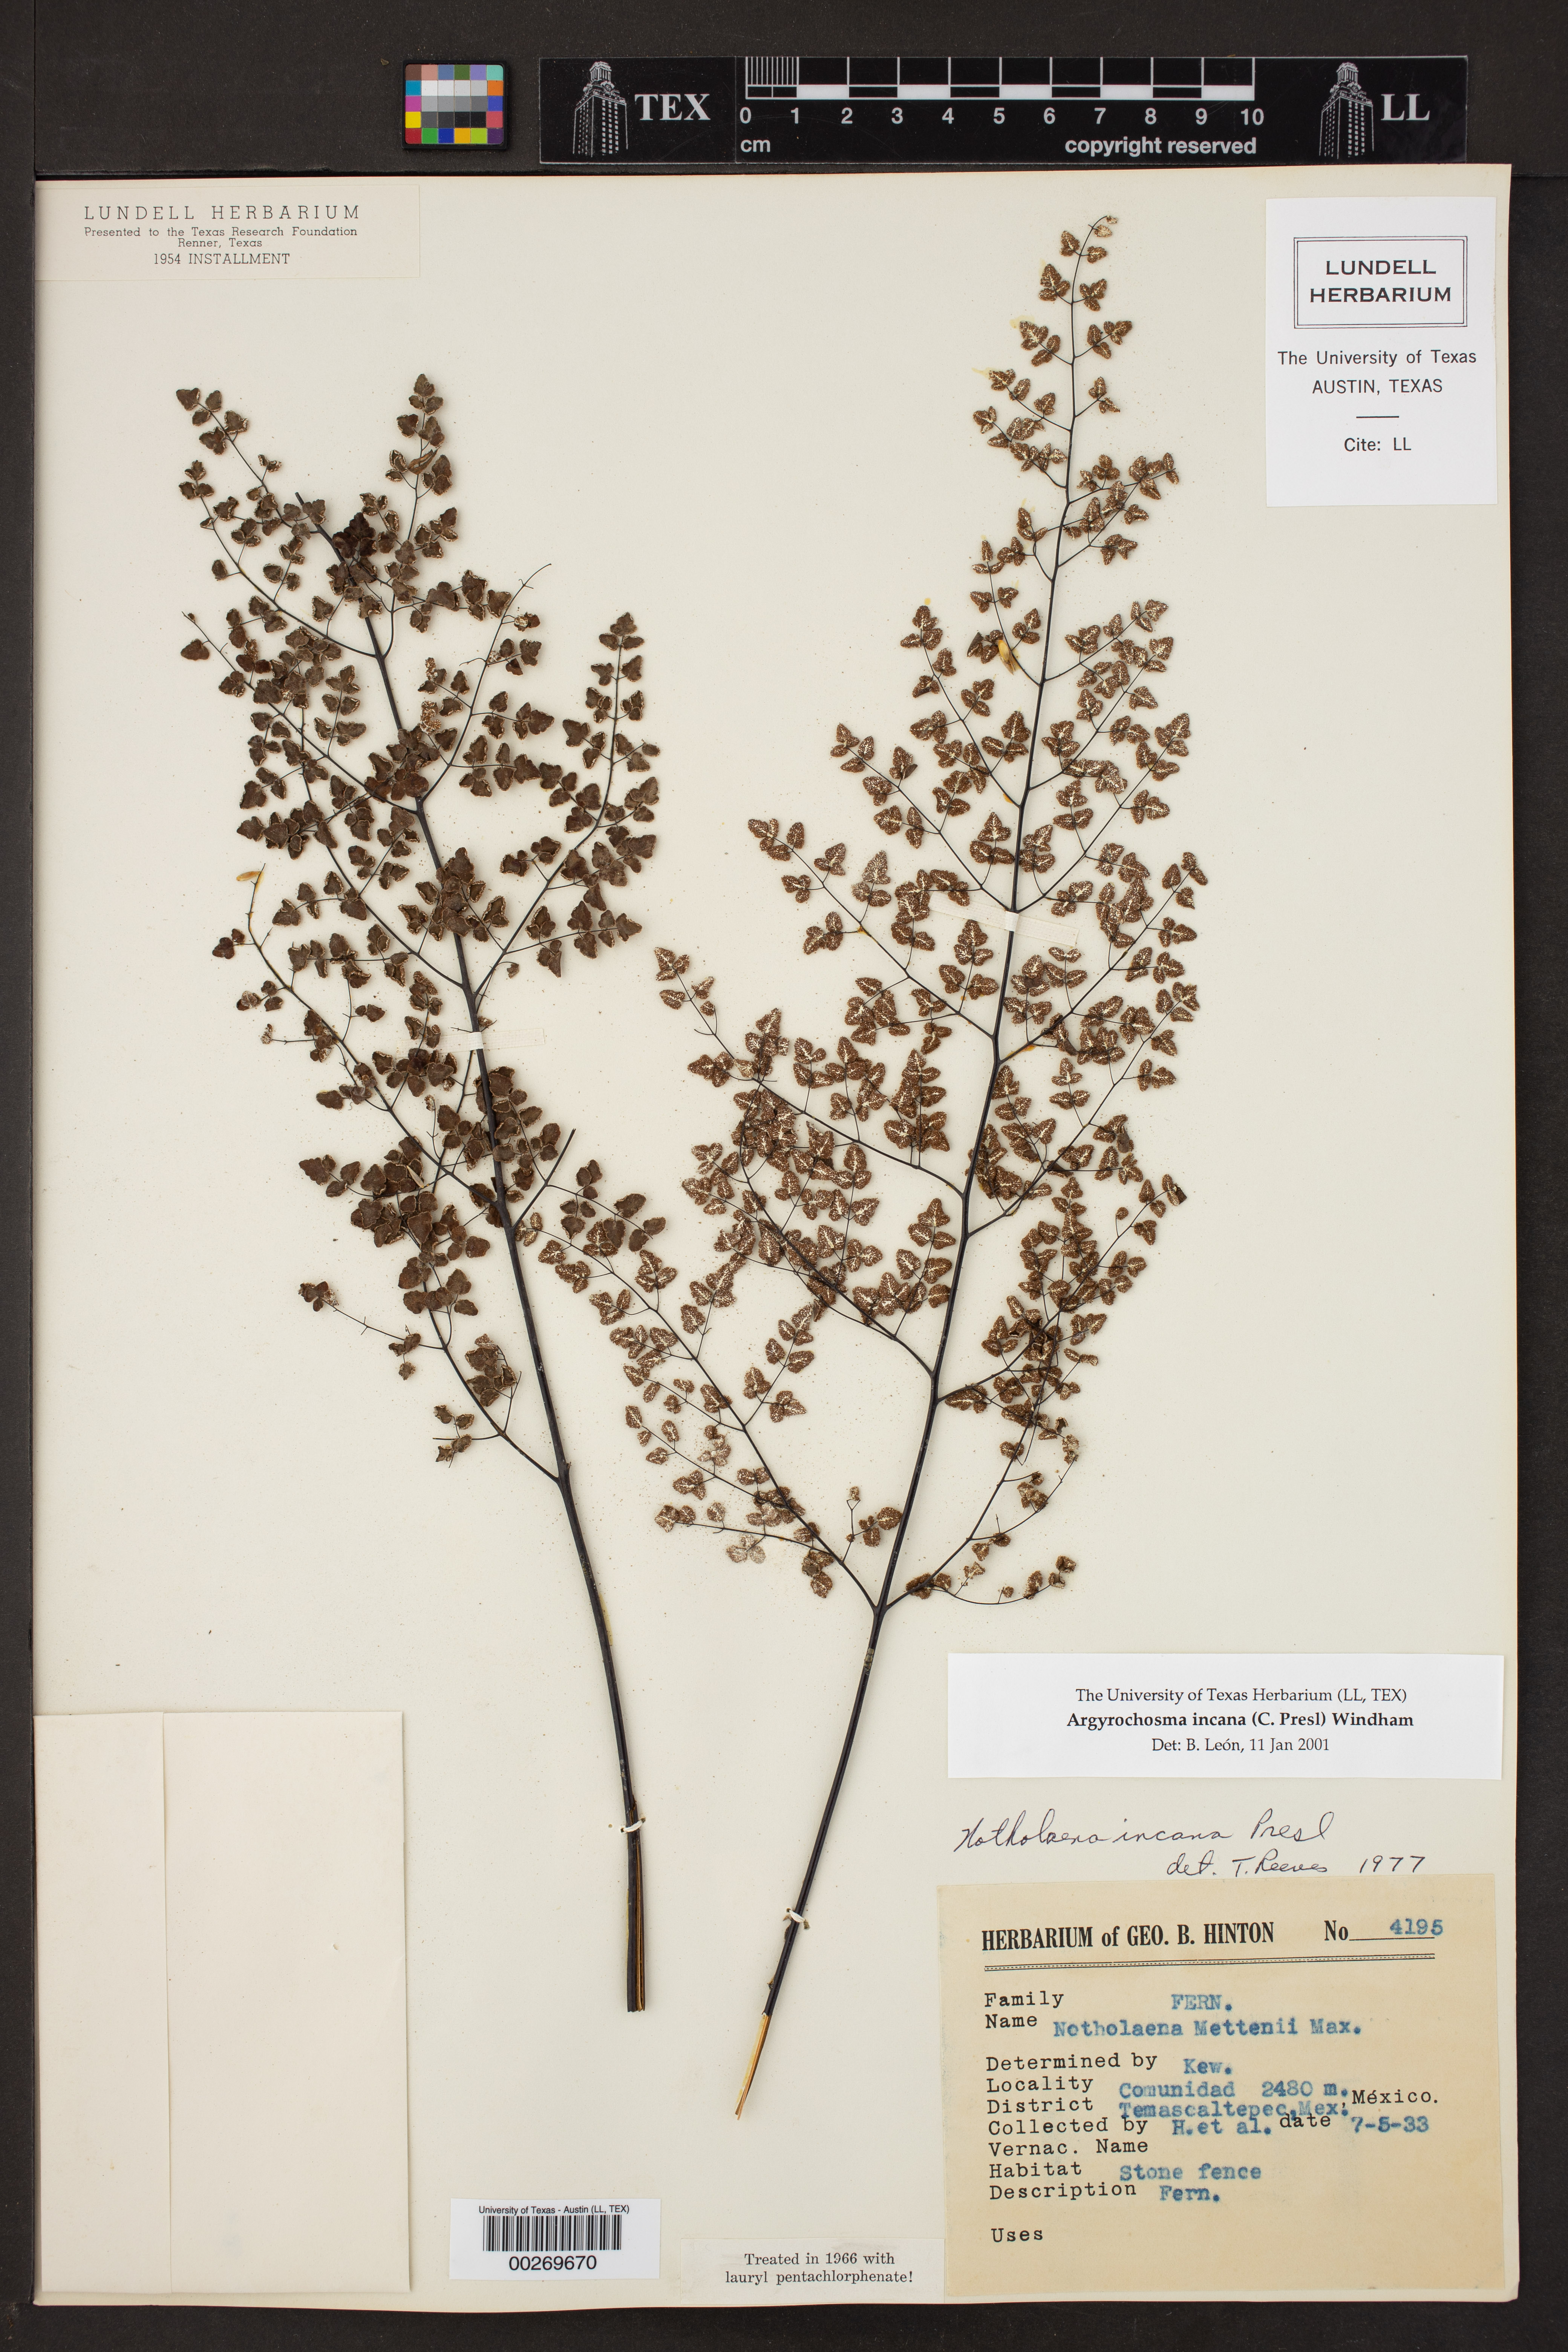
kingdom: Plantae
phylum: Tracheophyta
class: Polypodiopsida
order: Polypodiales
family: Pteridaceae
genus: Argyrochosma
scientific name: Argyrochosma incana
